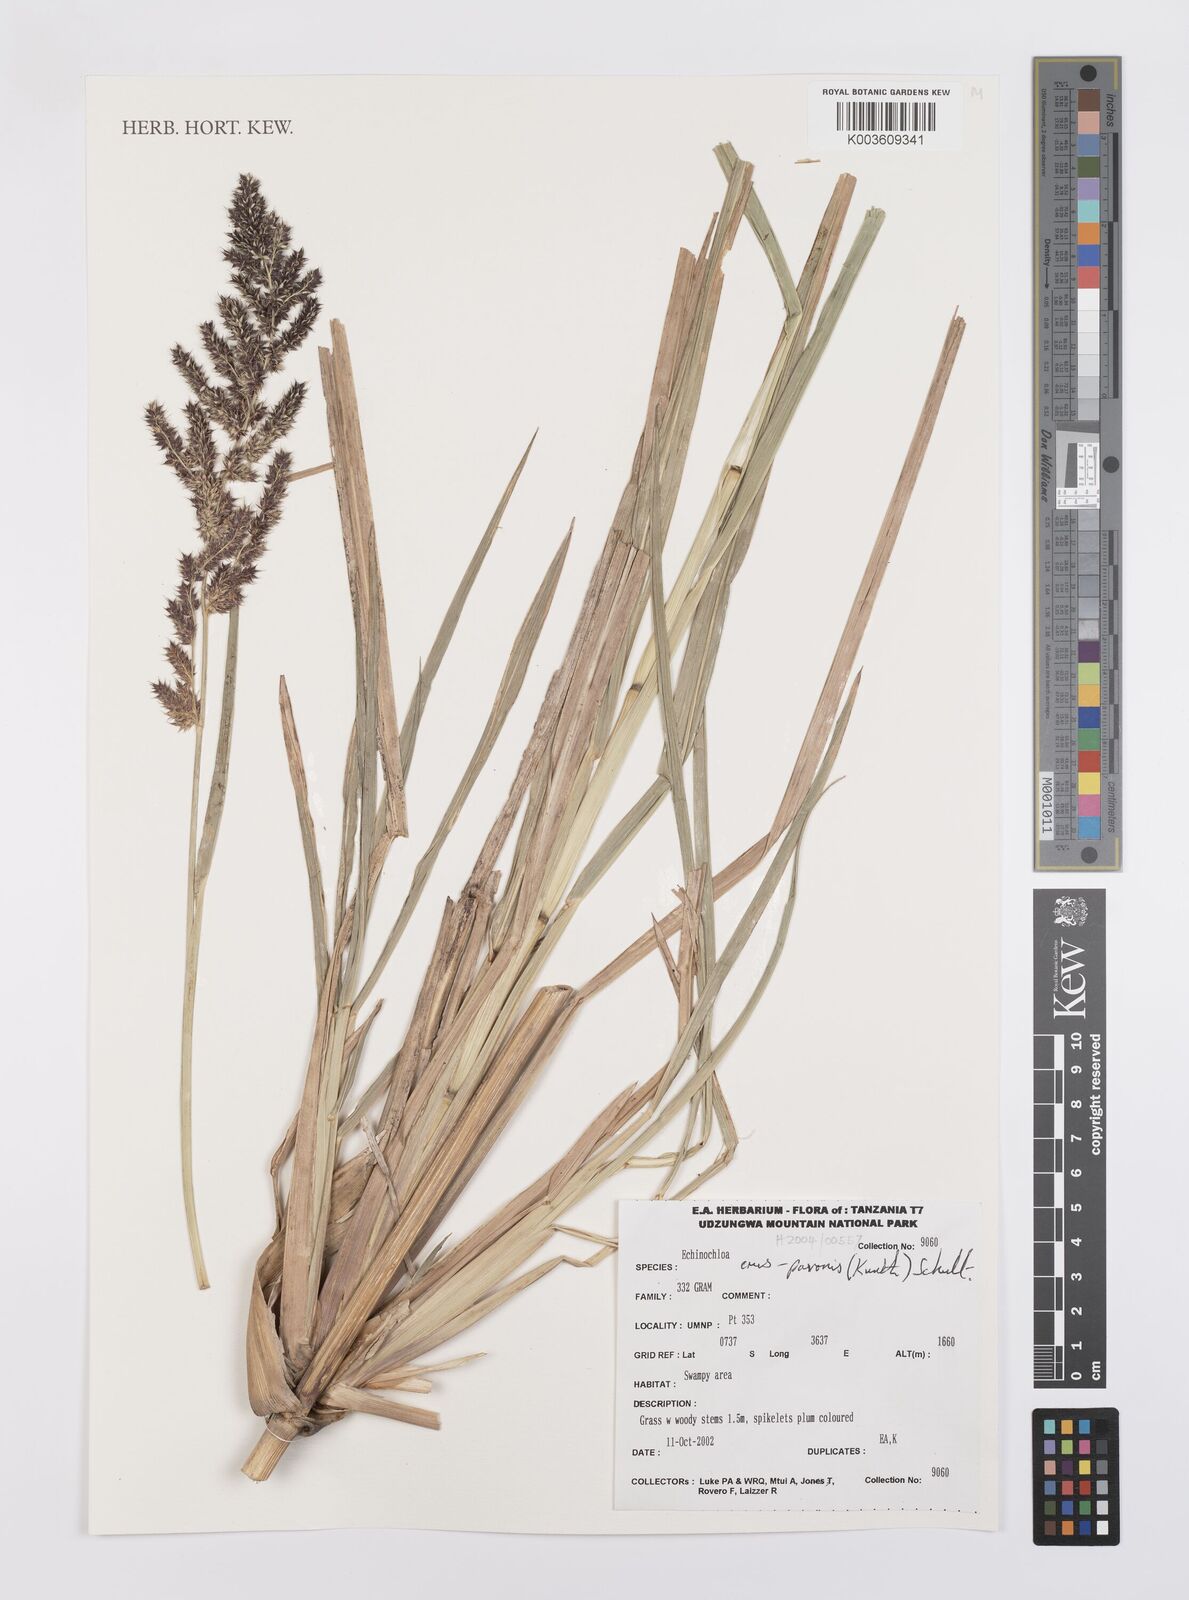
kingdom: Plantae
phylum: Tracheophyta
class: Liliopsida
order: Poales
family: Poaceae
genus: Echinochloa
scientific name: Echinochloa crus-pavonis
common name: Gulf cockspur grass
